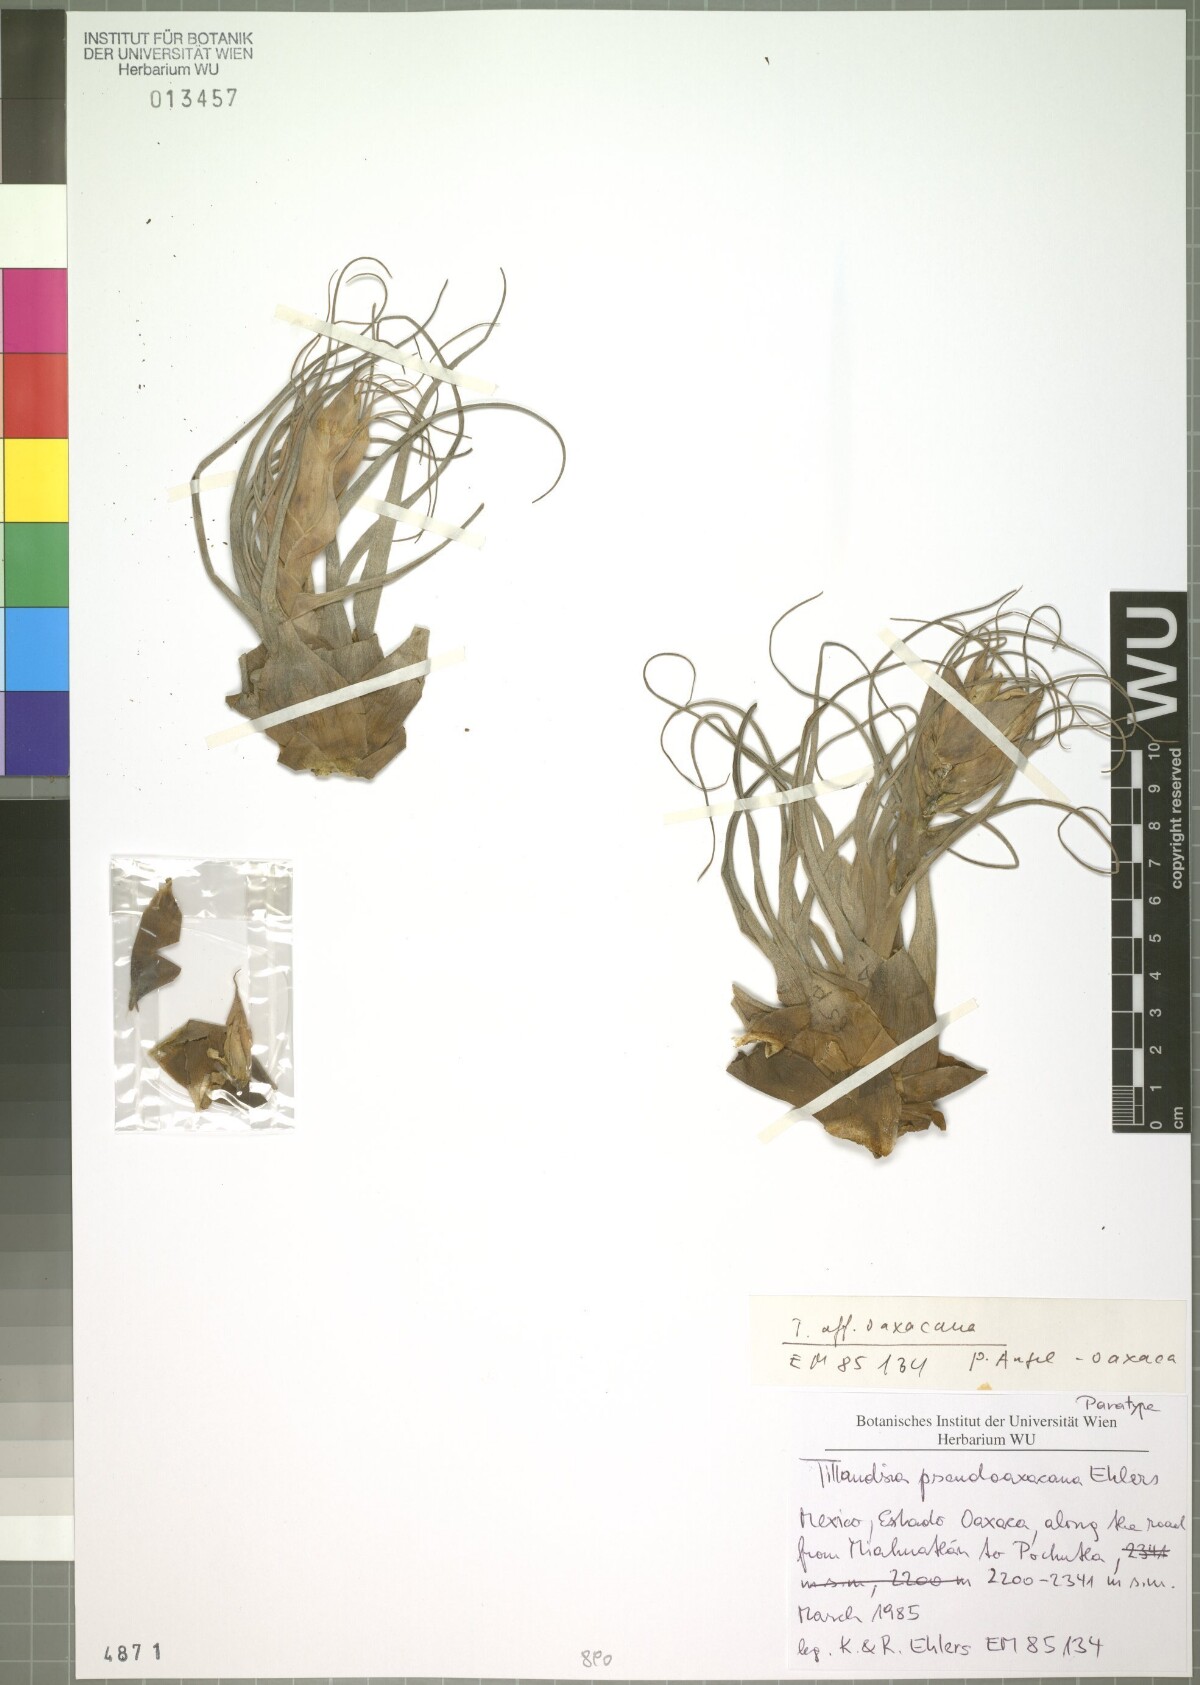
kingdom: Plantae
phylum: Tracheophyta
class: Liliopsida
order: Poales
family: Bromeliaceae
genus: Tillandsia
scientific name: Tillandsia pseudooaxacana
